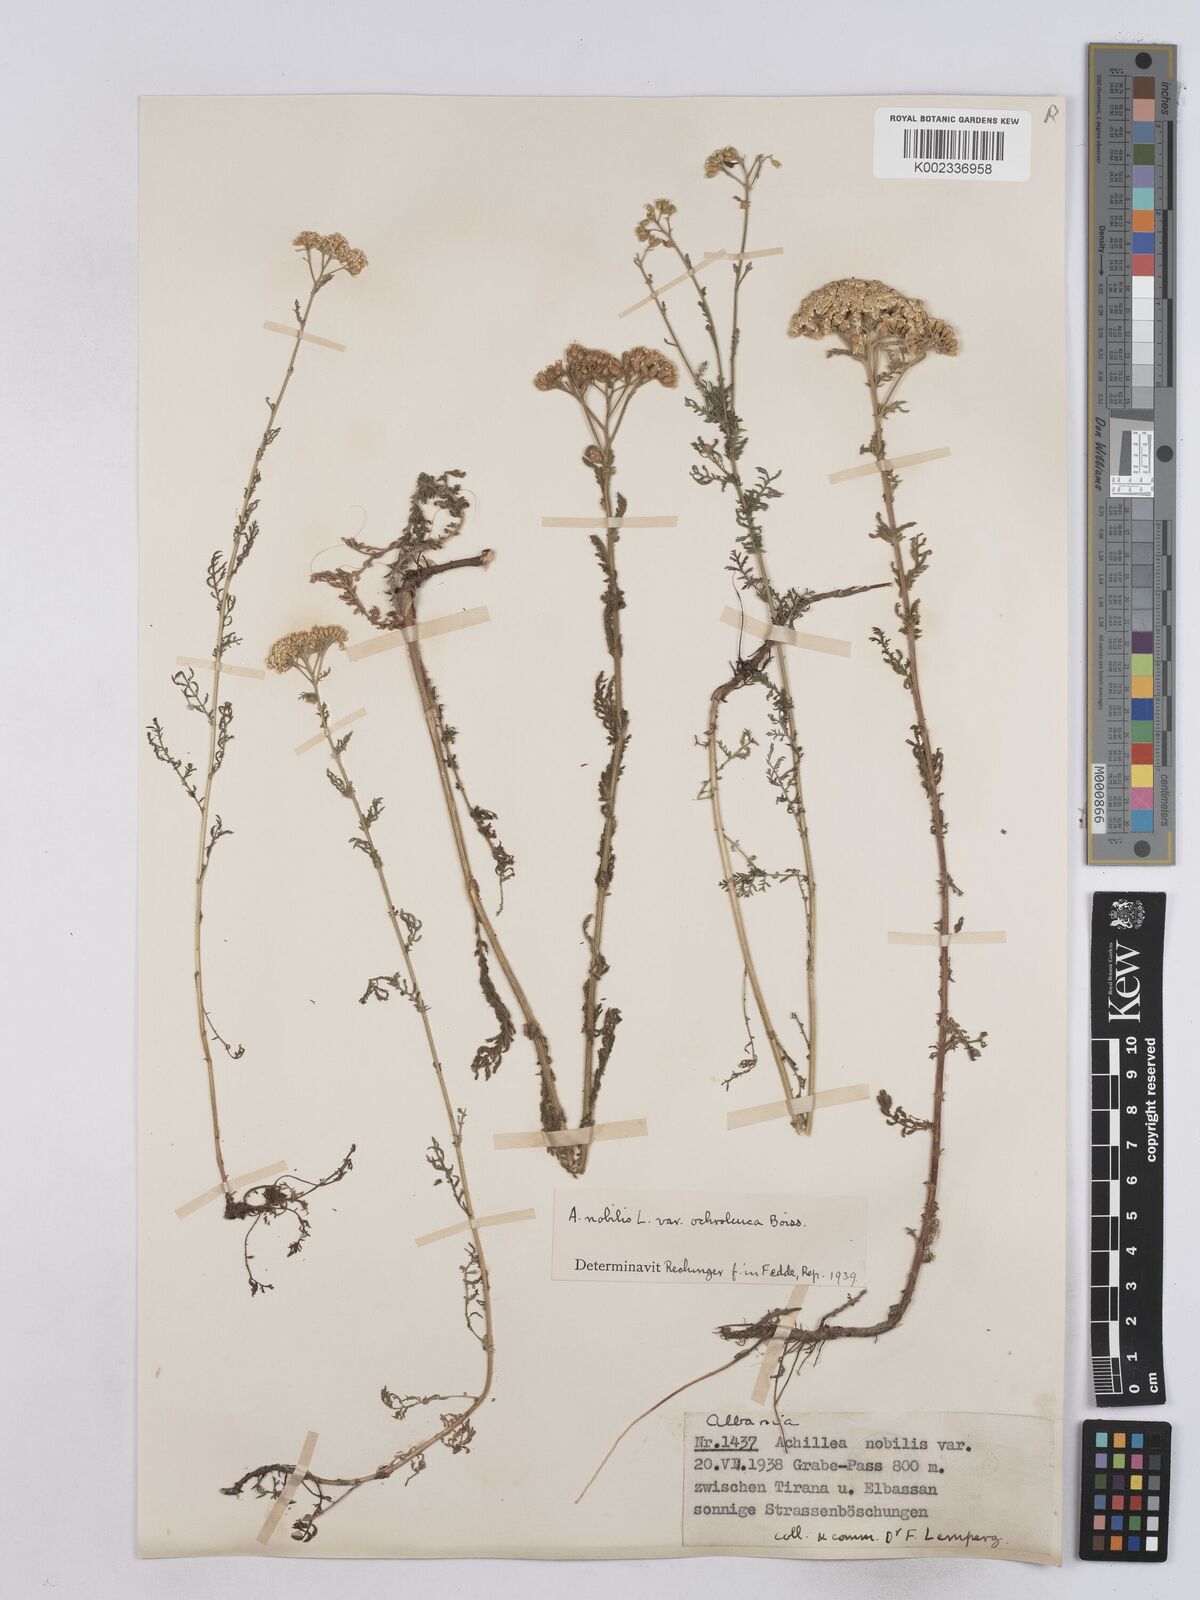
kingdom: Plantae
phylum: Tracheophyta
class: Magnoliopsida
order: Asterales
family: Asteraceae
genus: Achillea
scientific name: Achillea nobilis
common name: Noble yarrow
